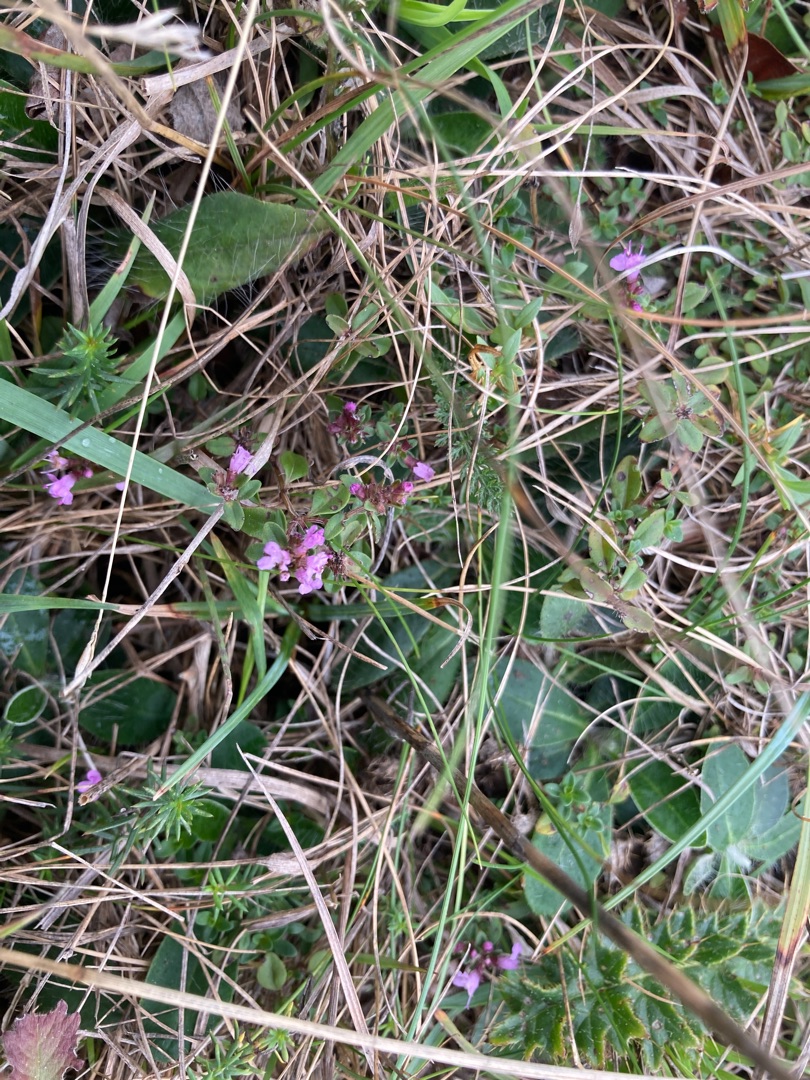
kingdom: Plantae
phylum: Tracheophyta
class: Magnoliopsida
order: Lamiales
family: Lamiaceae
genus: Thymus
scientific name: Thymus pulegioides
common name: Bredbladet timian
